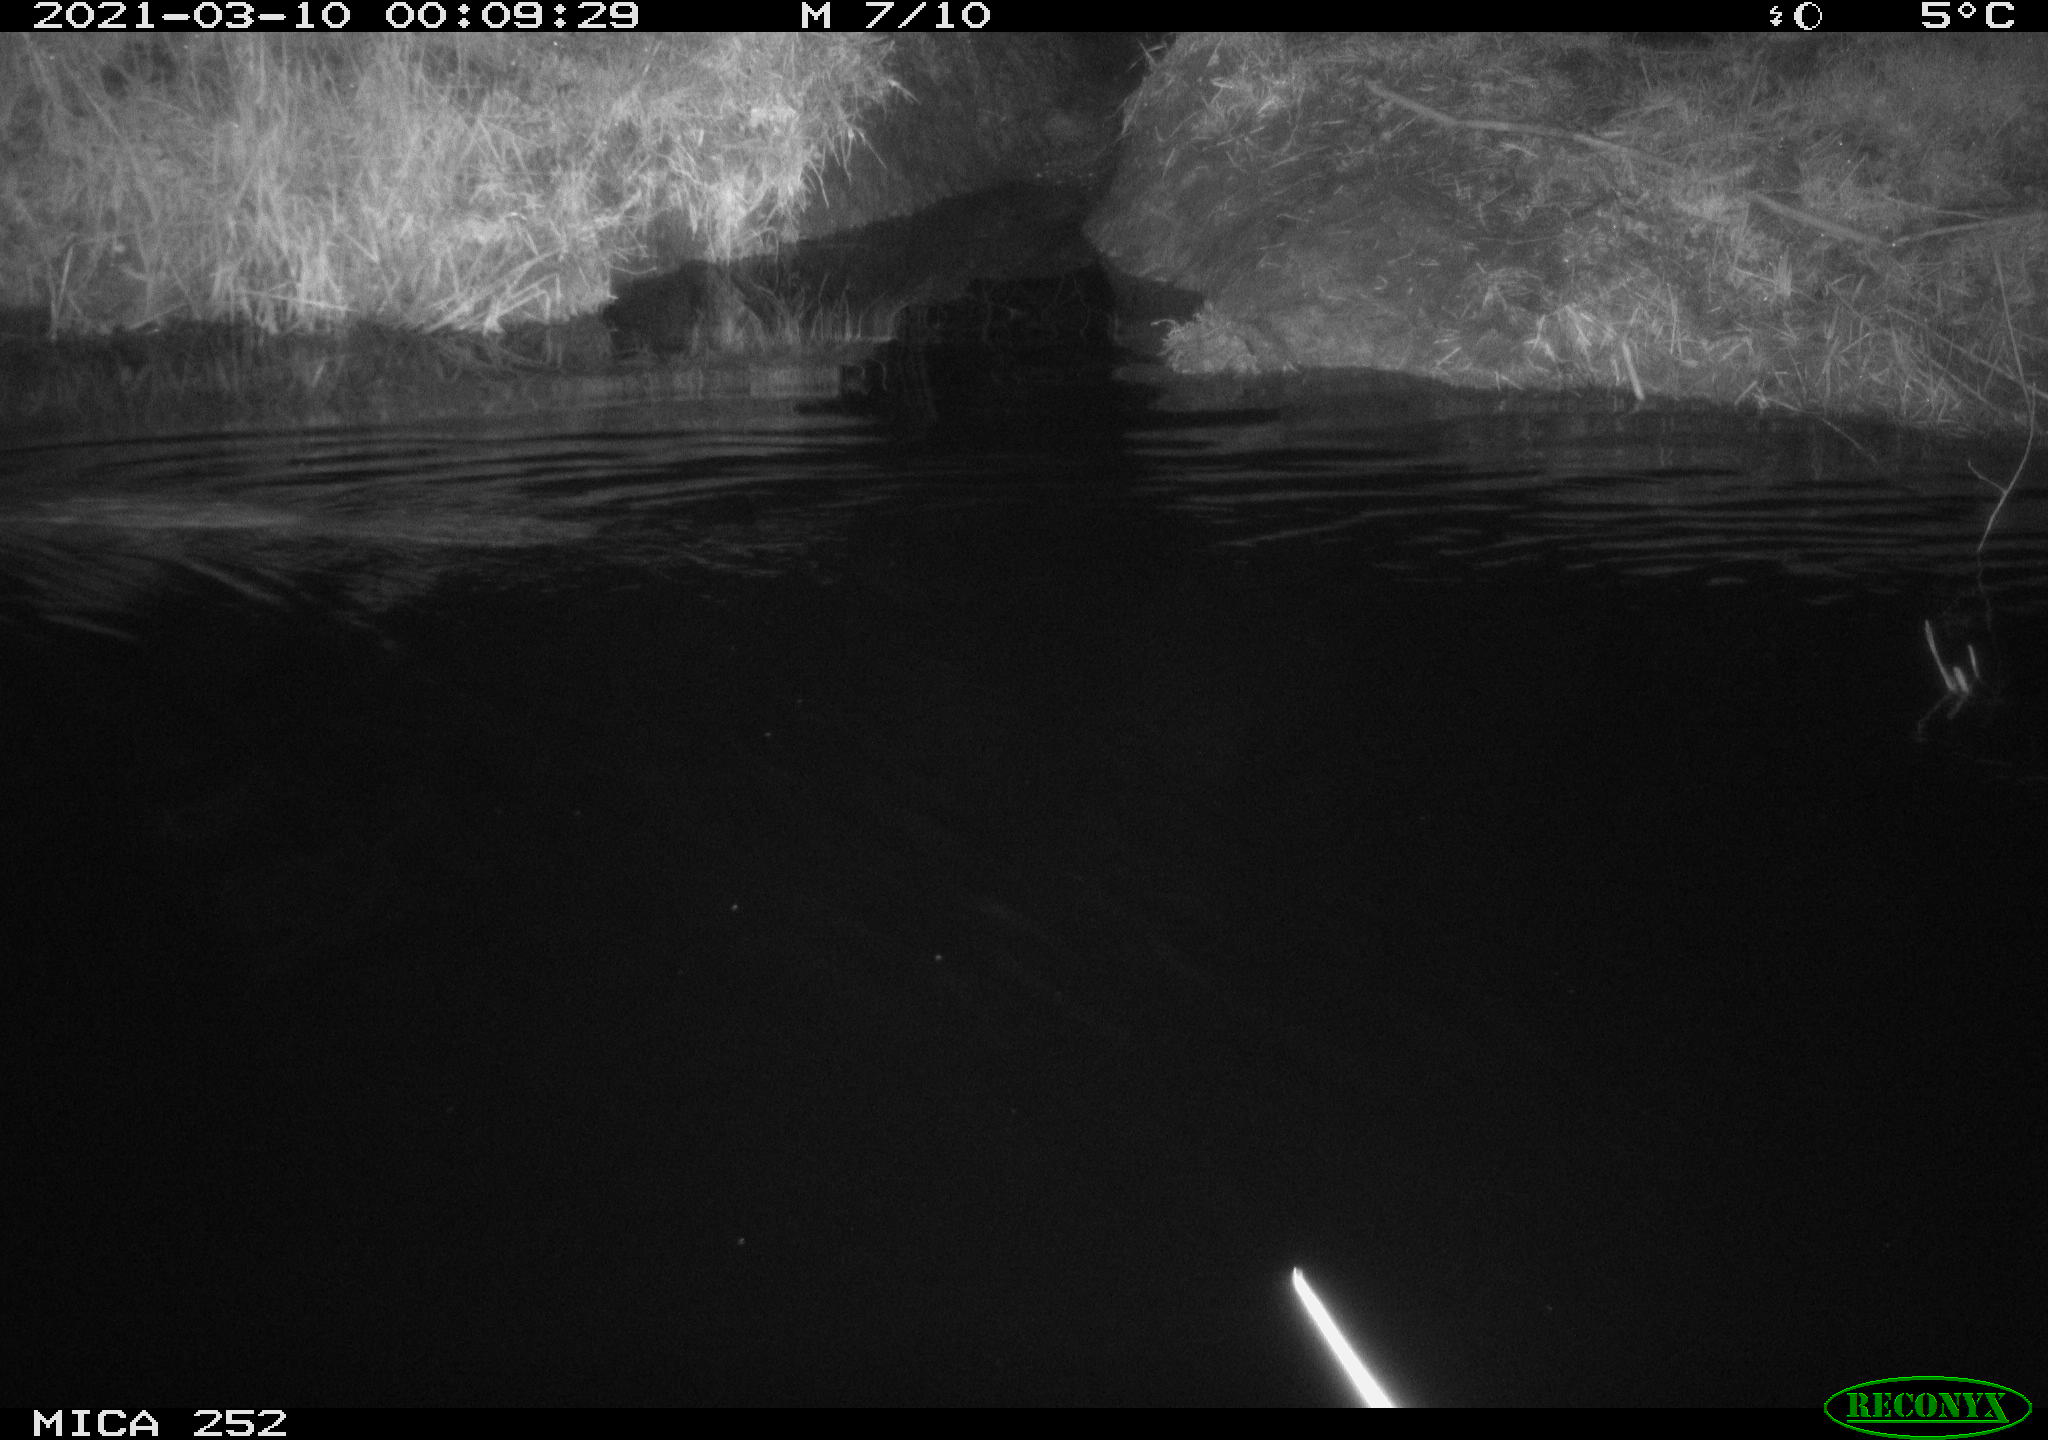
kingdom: Animalia
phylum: Chordata
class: Mammalia
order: Rodentia
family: Castoridae
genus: Castor
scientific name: Castor fiber
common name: Eurasian beaver
